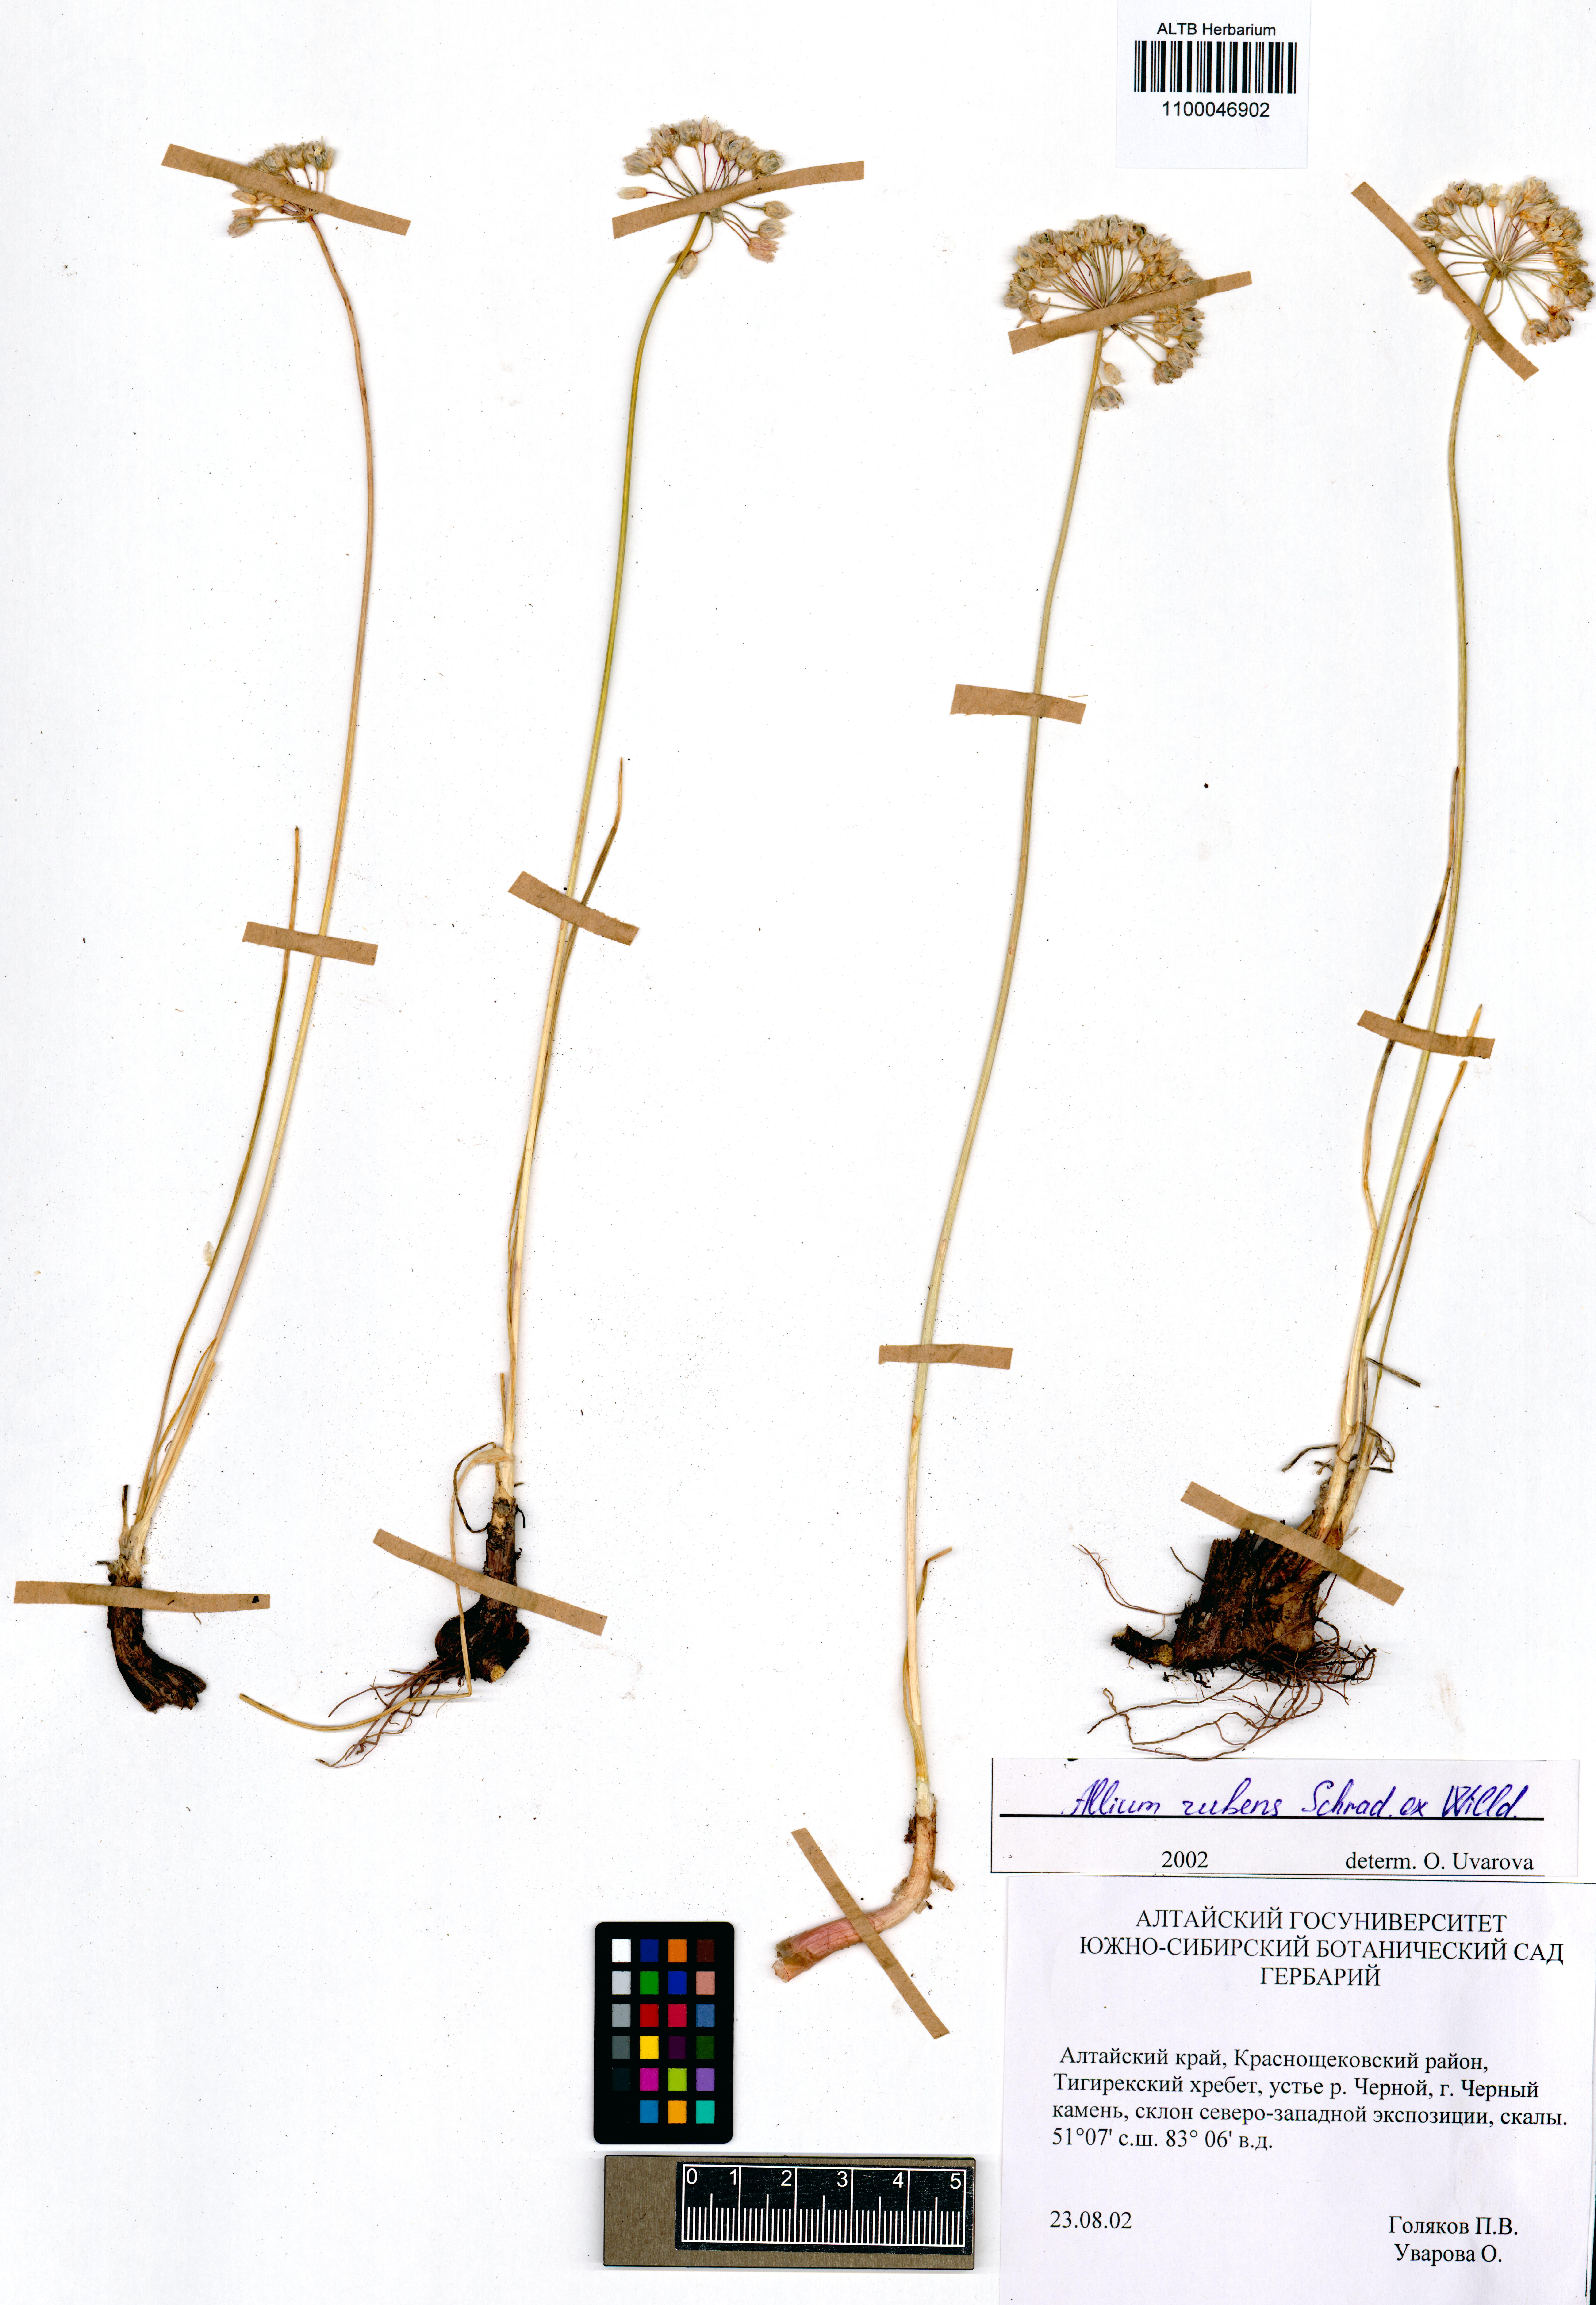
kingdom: Plantae
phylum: Tracheophyta
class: Liliopsida
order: Asparagales
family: Amaryllidaceae
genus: Allium
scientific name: Allium rubens
